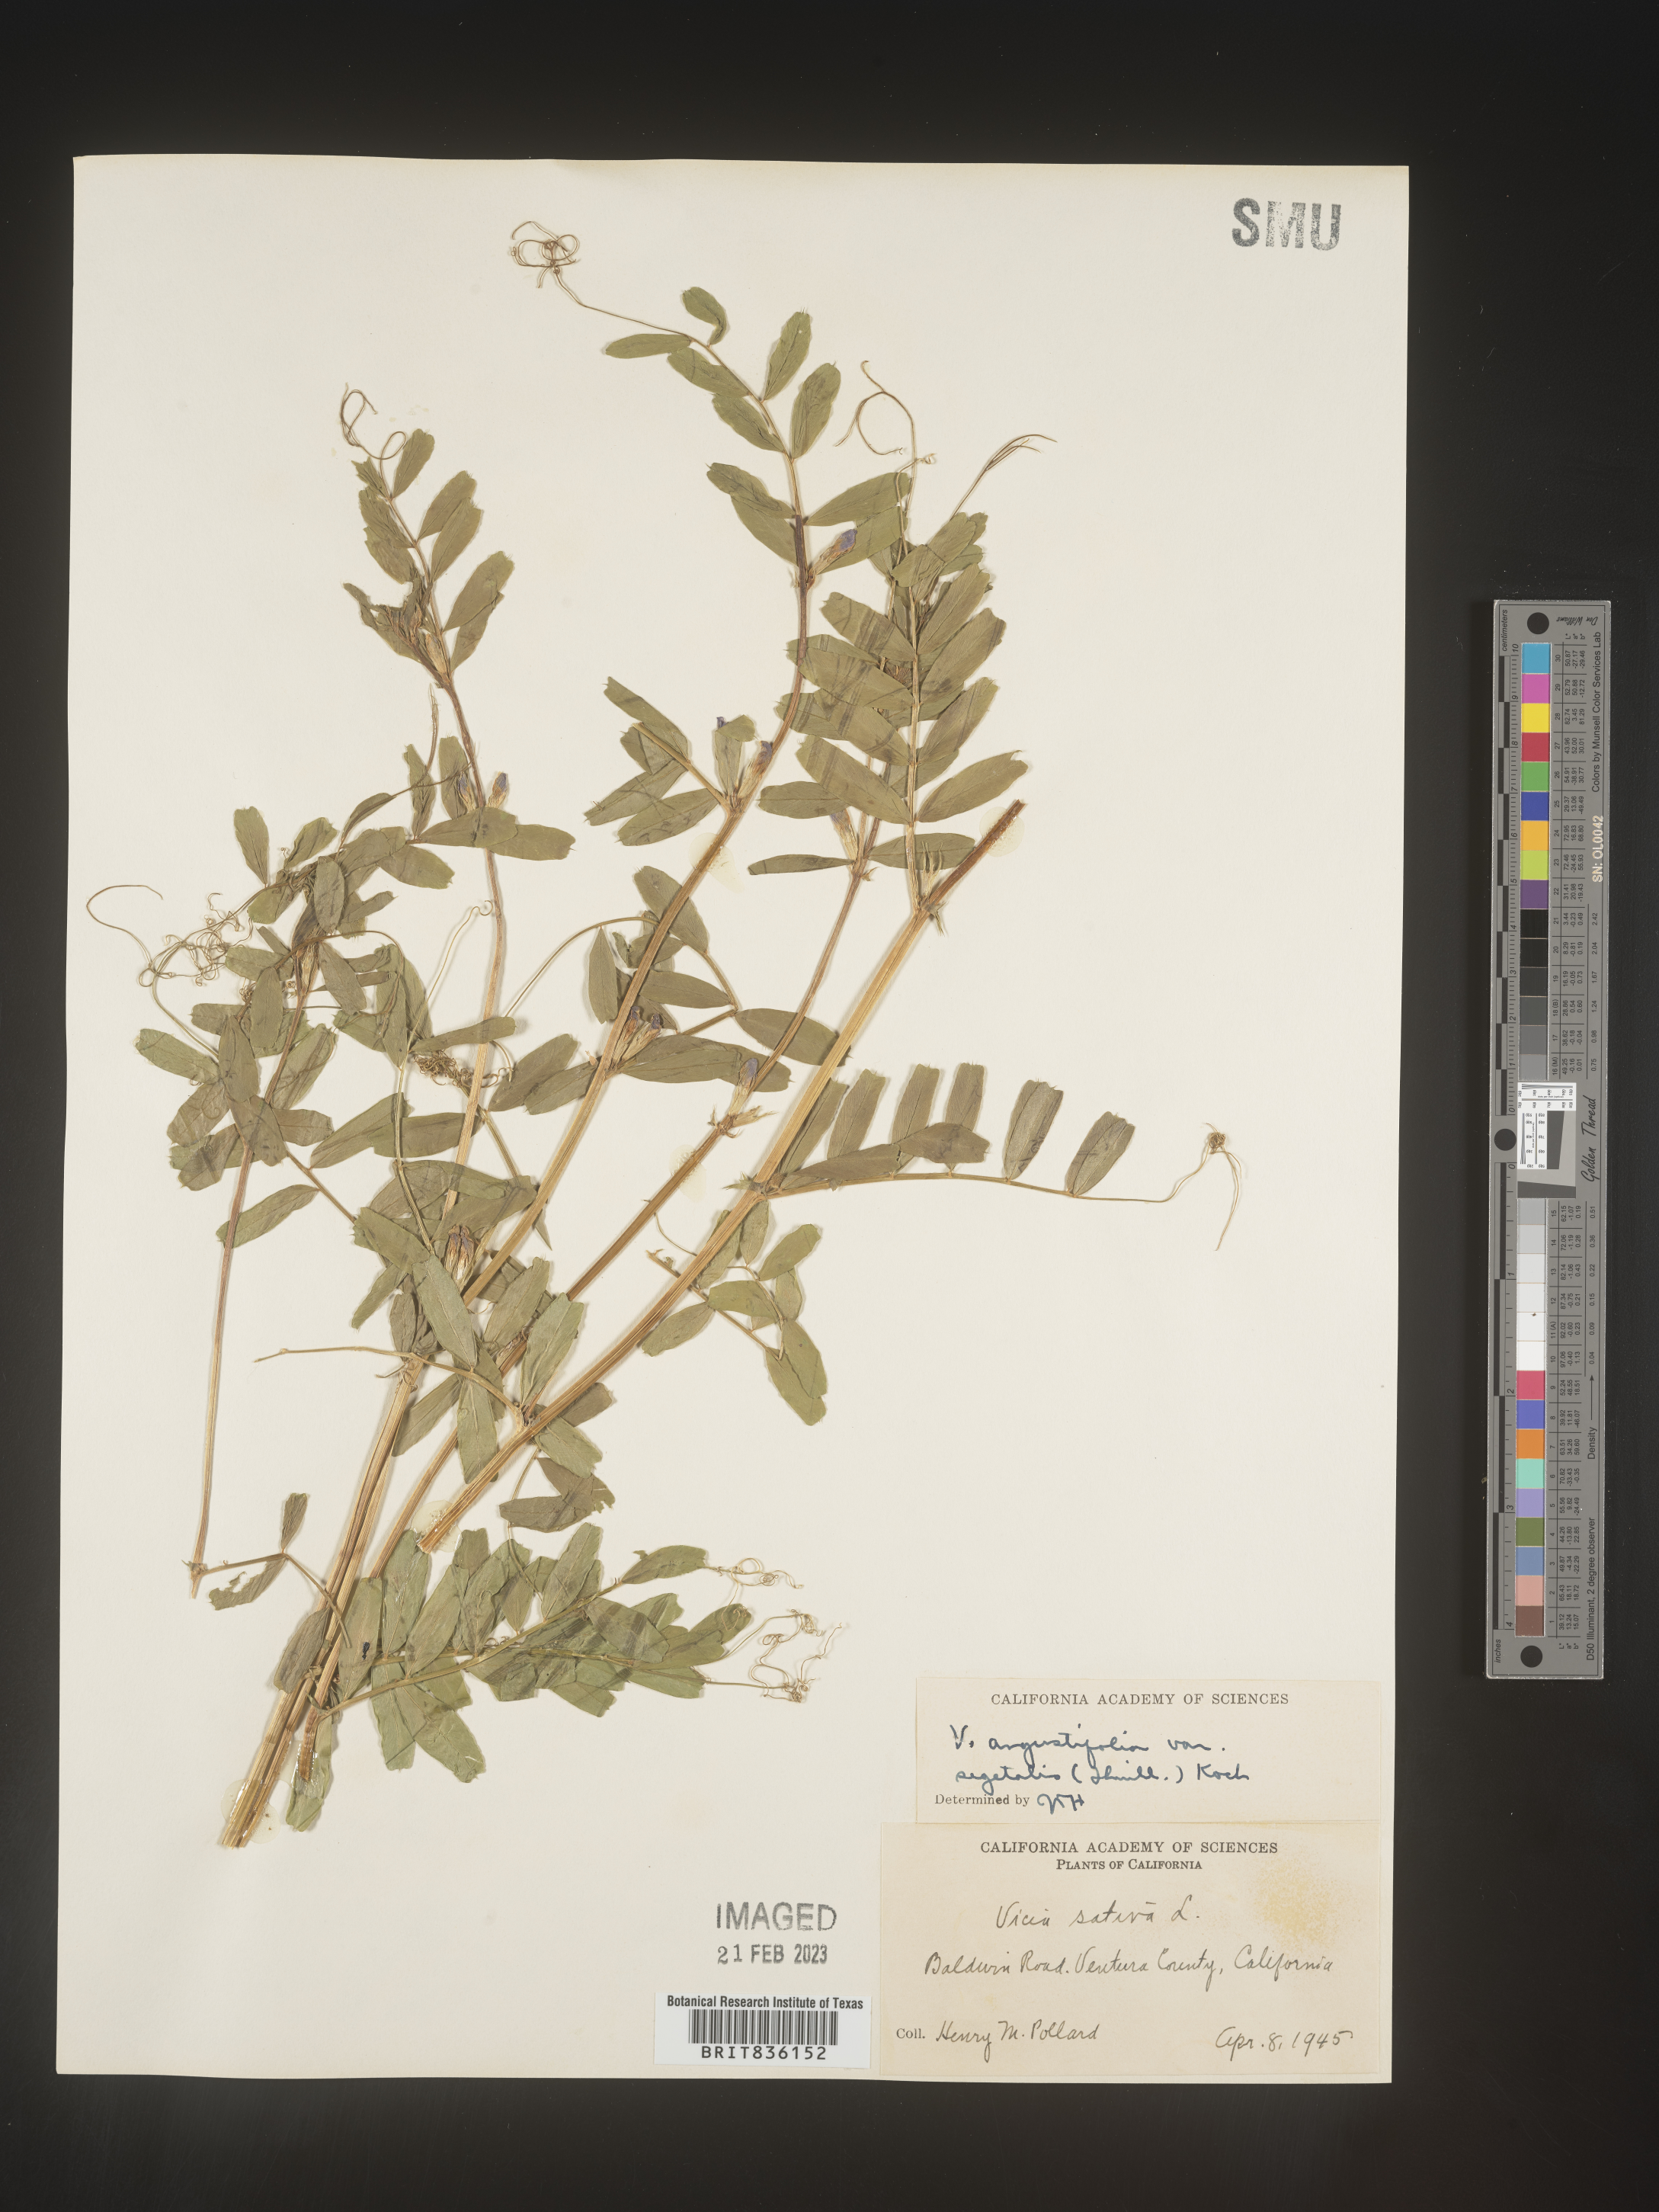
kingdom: Plantae
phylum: Tracheophyta
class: Magnoliopsida
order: Fabales
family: Fabaceae
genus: Vicia
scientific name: Vicia sativa
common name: Garden vetch
